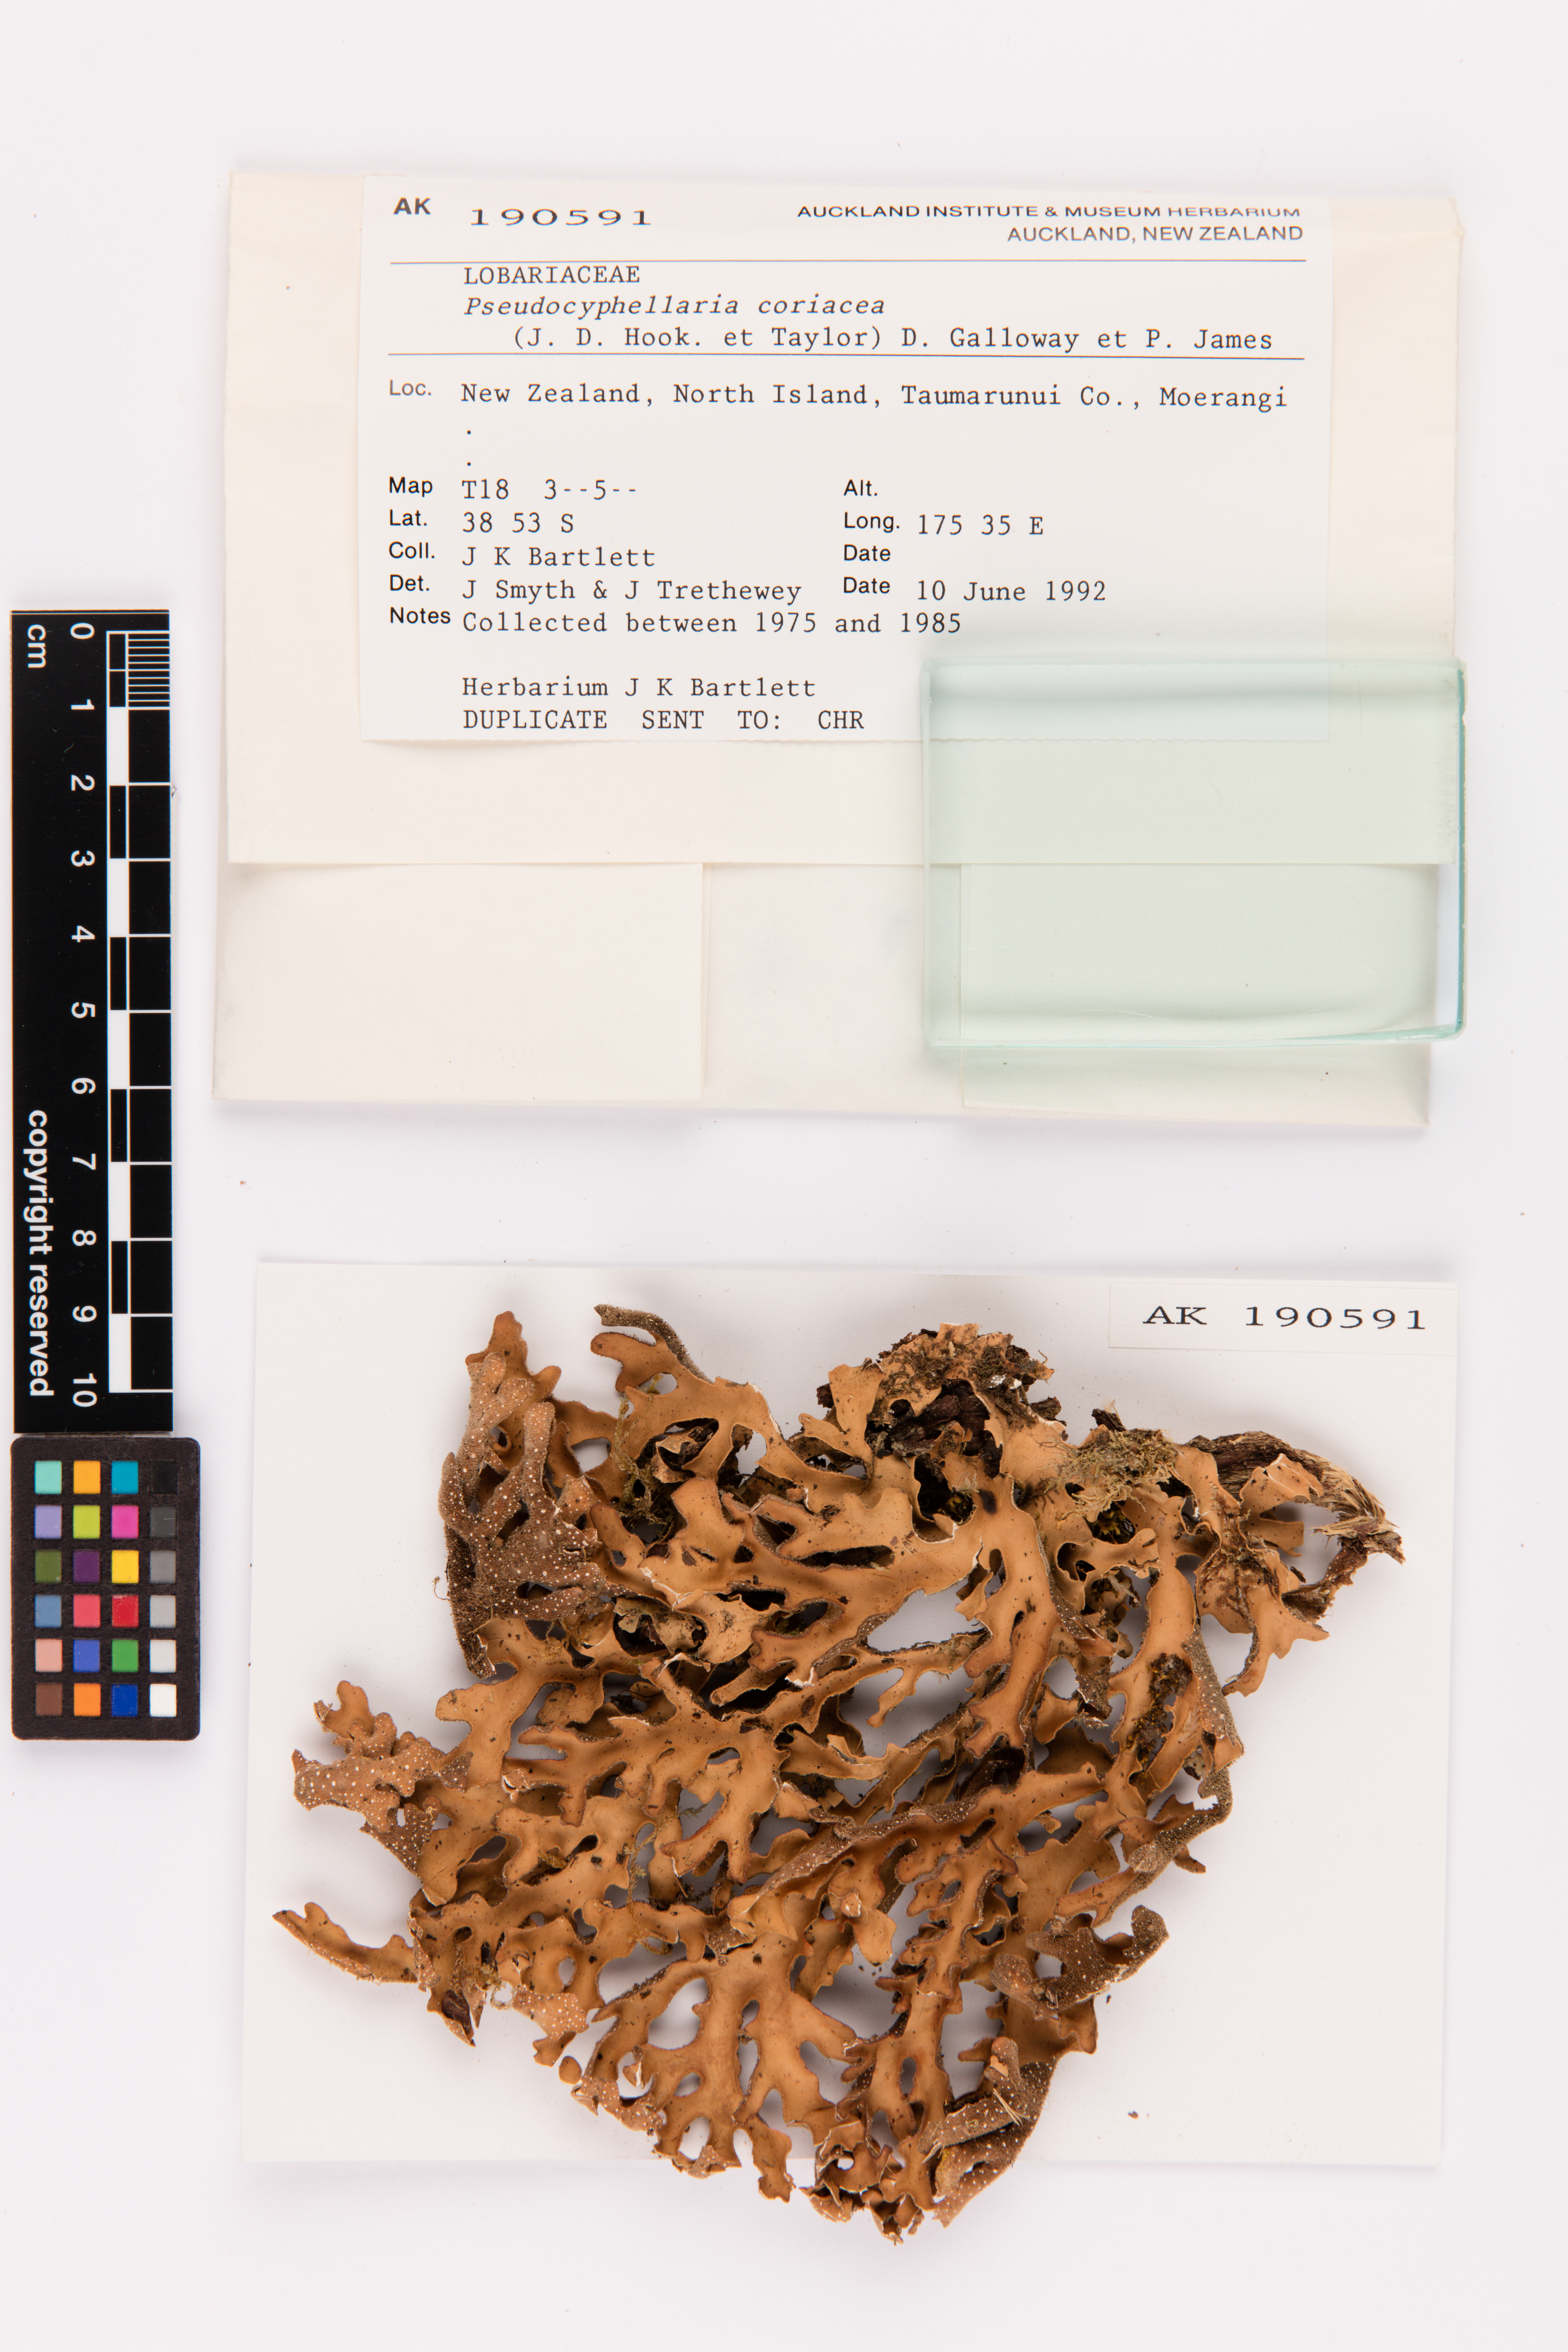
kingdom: Fungi
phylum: Ascomycota
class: Lecanoromycetes
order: Peltigerales
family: Lobariaceae
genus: Pseudocyphellaria
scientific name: Pseudocyphellaria coriacea
